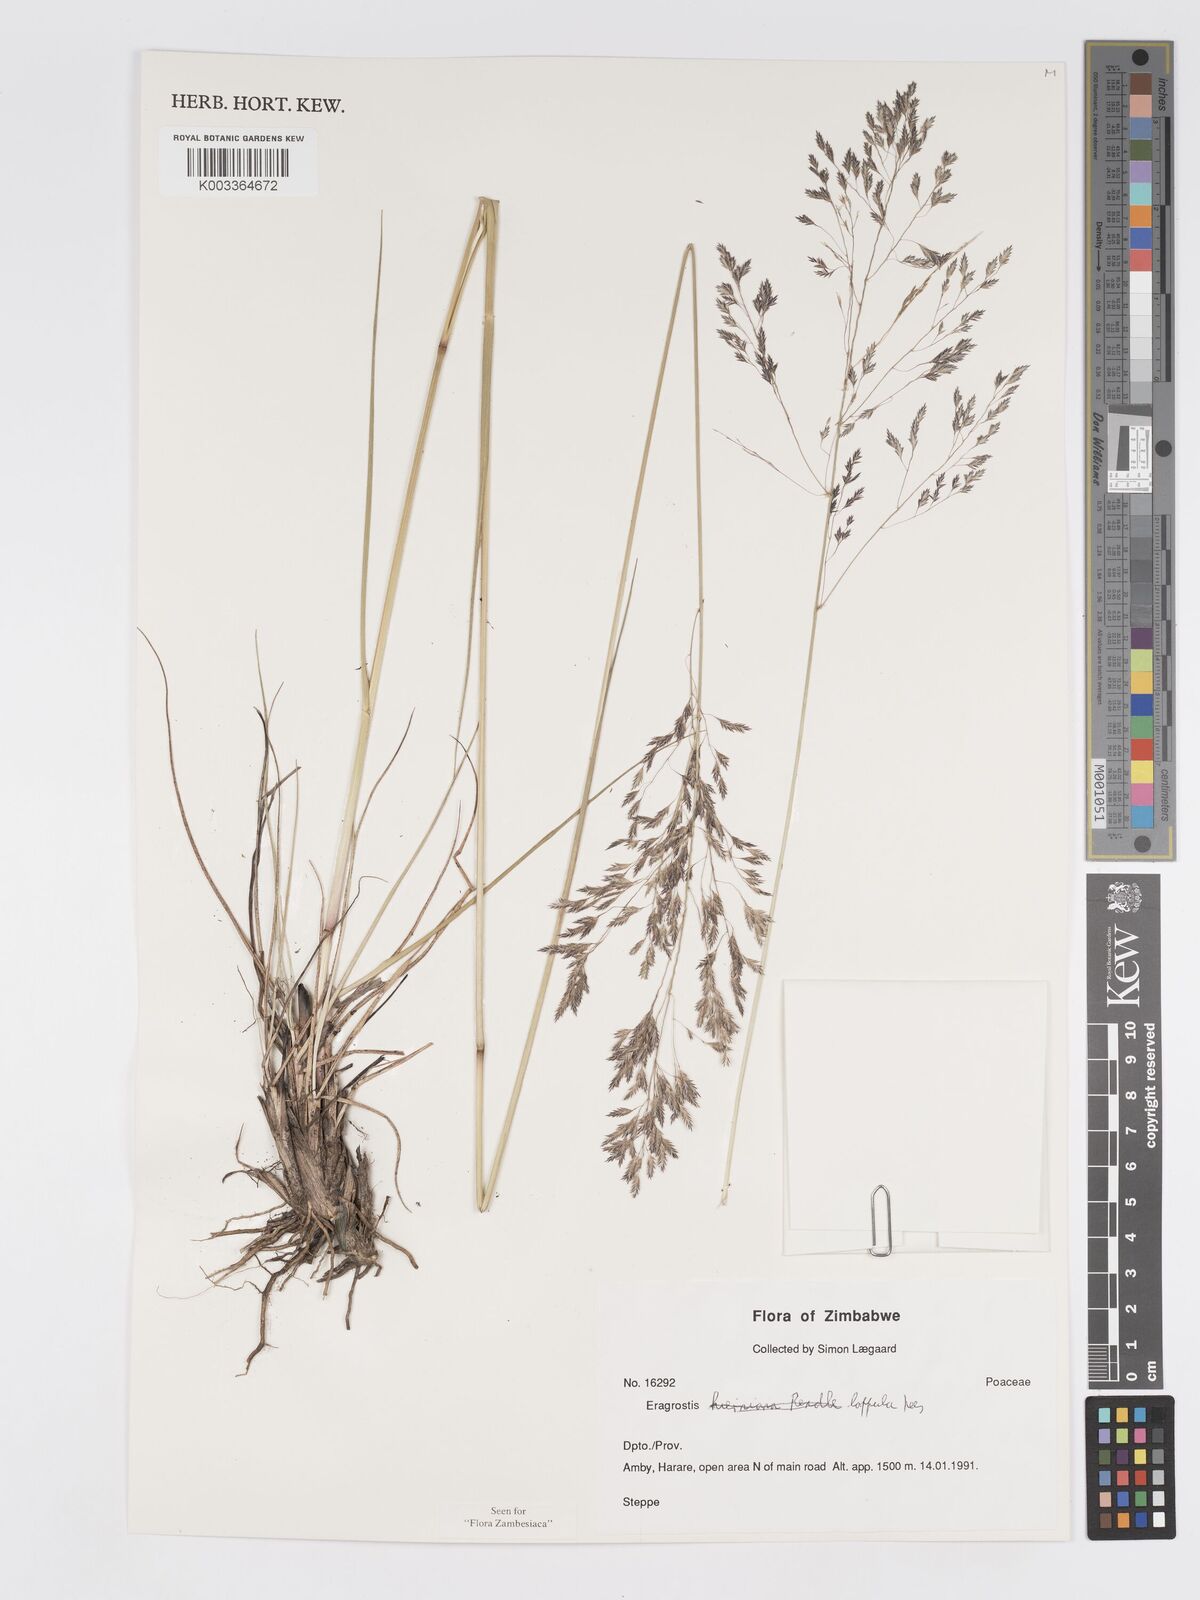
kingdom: Plantae
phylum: Tracheophyta
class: Liliopsida
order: Poales
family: Poaceae
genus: Eragrostis
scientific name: Eragrostis lappula
